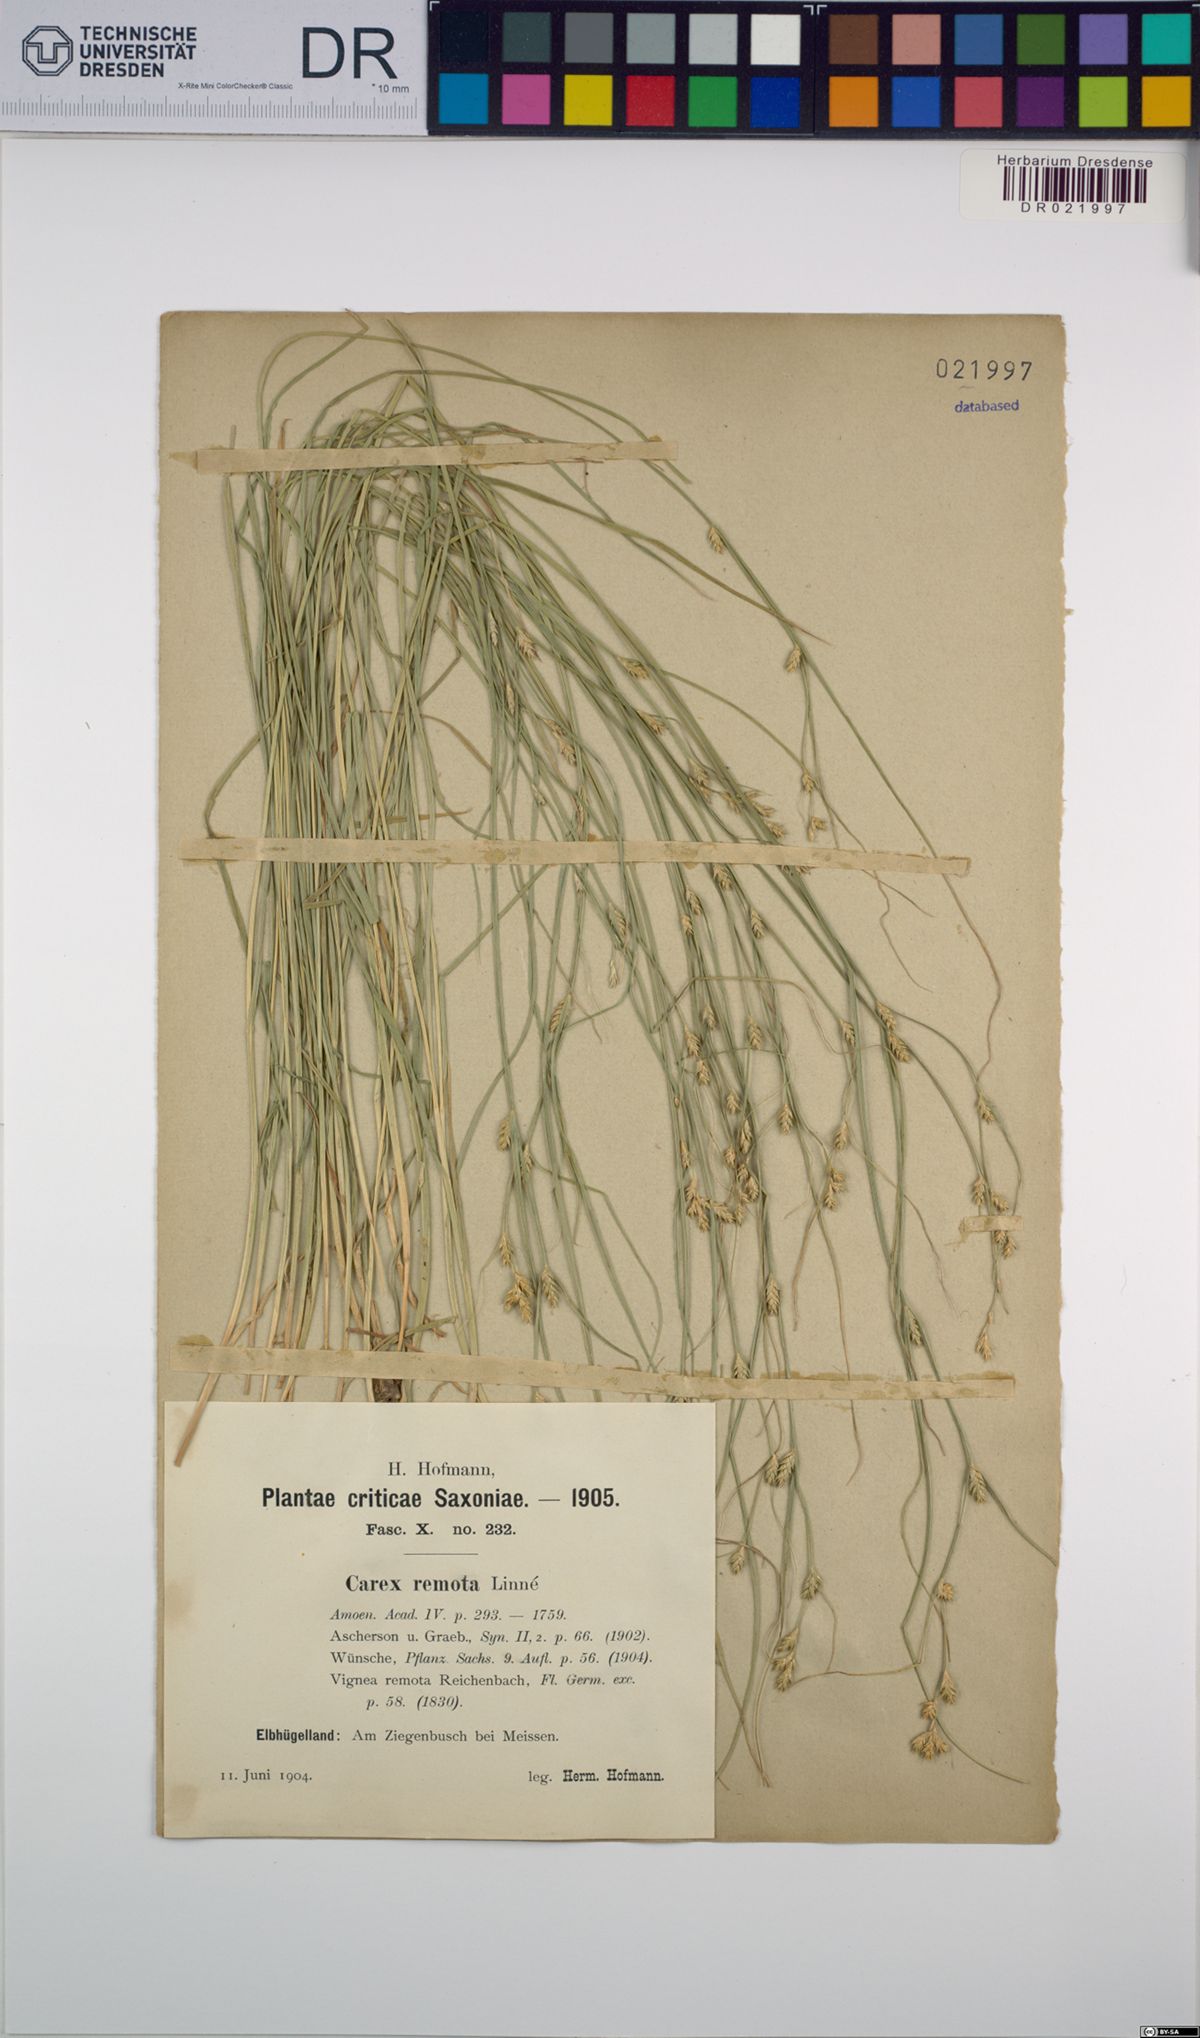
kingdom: Plantae
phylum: Tracheophyta
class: Liliopsida
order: Poales
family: Cyperaceae
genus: Carex
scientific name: Carex remota
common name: Remote sedge
